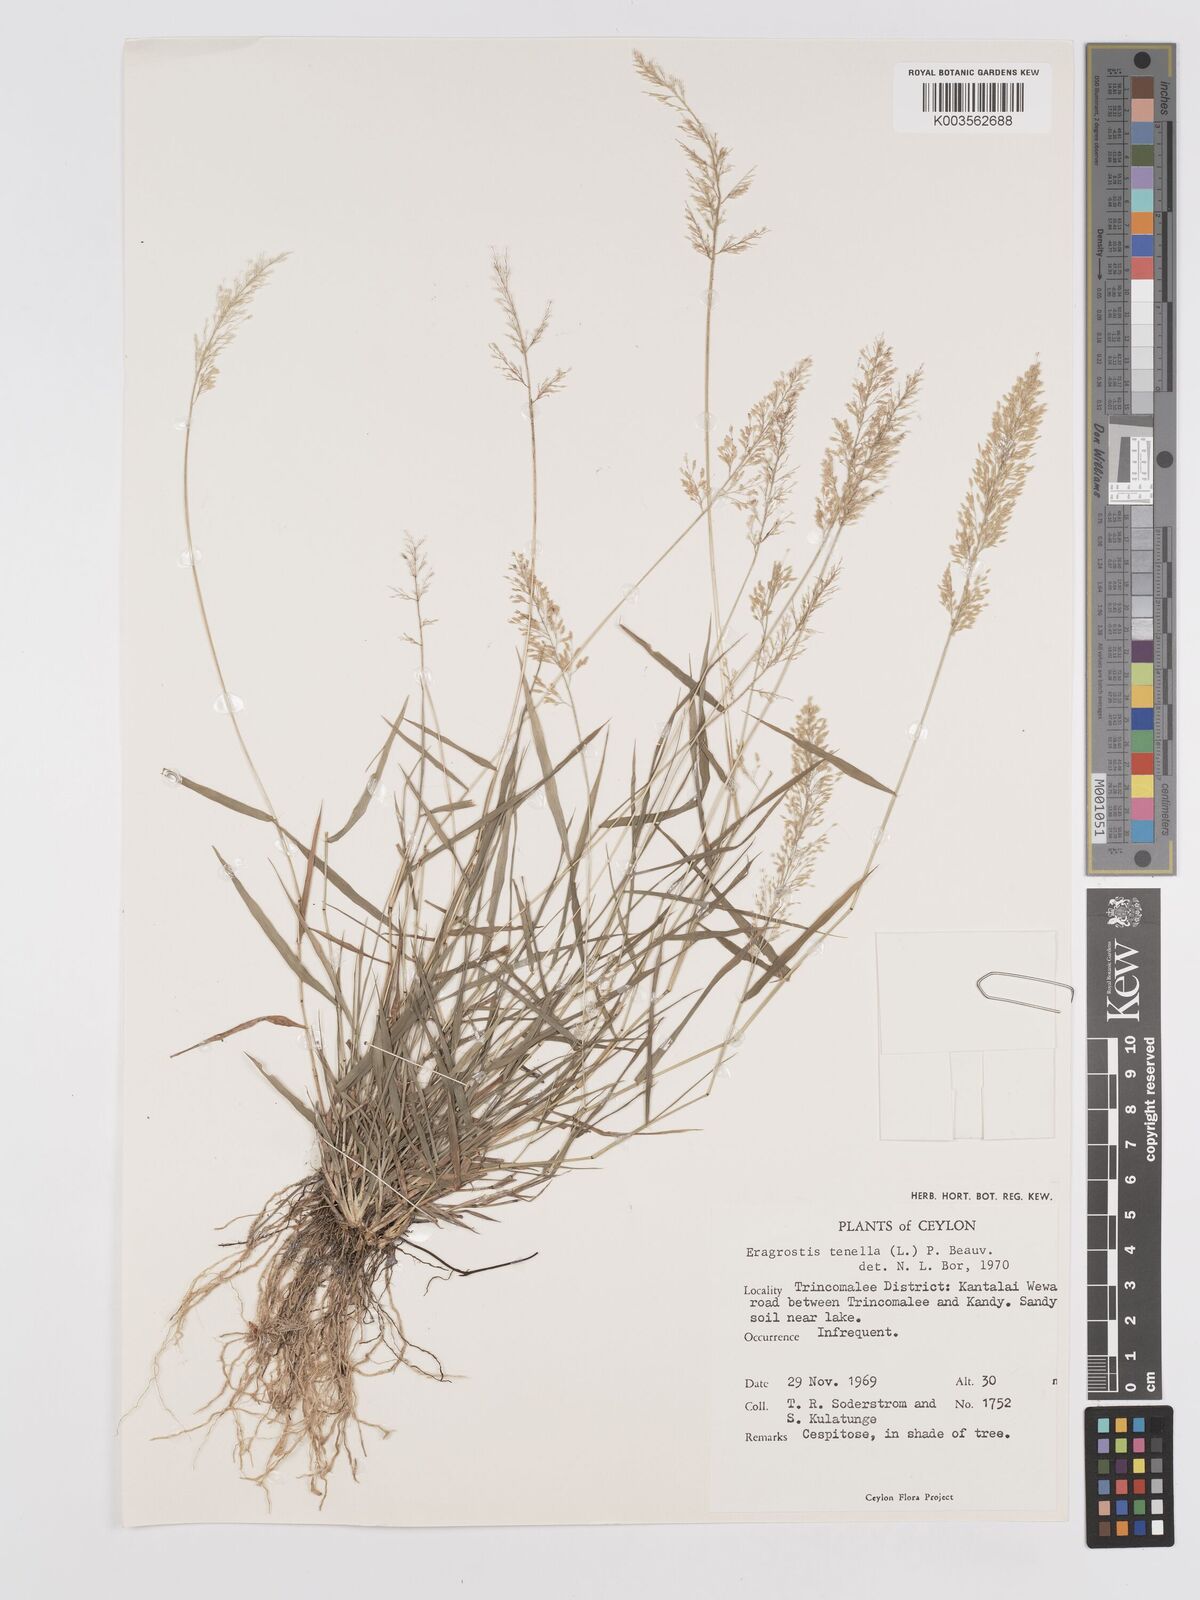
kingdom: Plantae
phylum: Tracheophyta
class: Liliopsida
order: Poales
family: Poaceae
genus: Eragrostis
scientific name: Eragrostis tenella
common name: Japanese lovegrass
